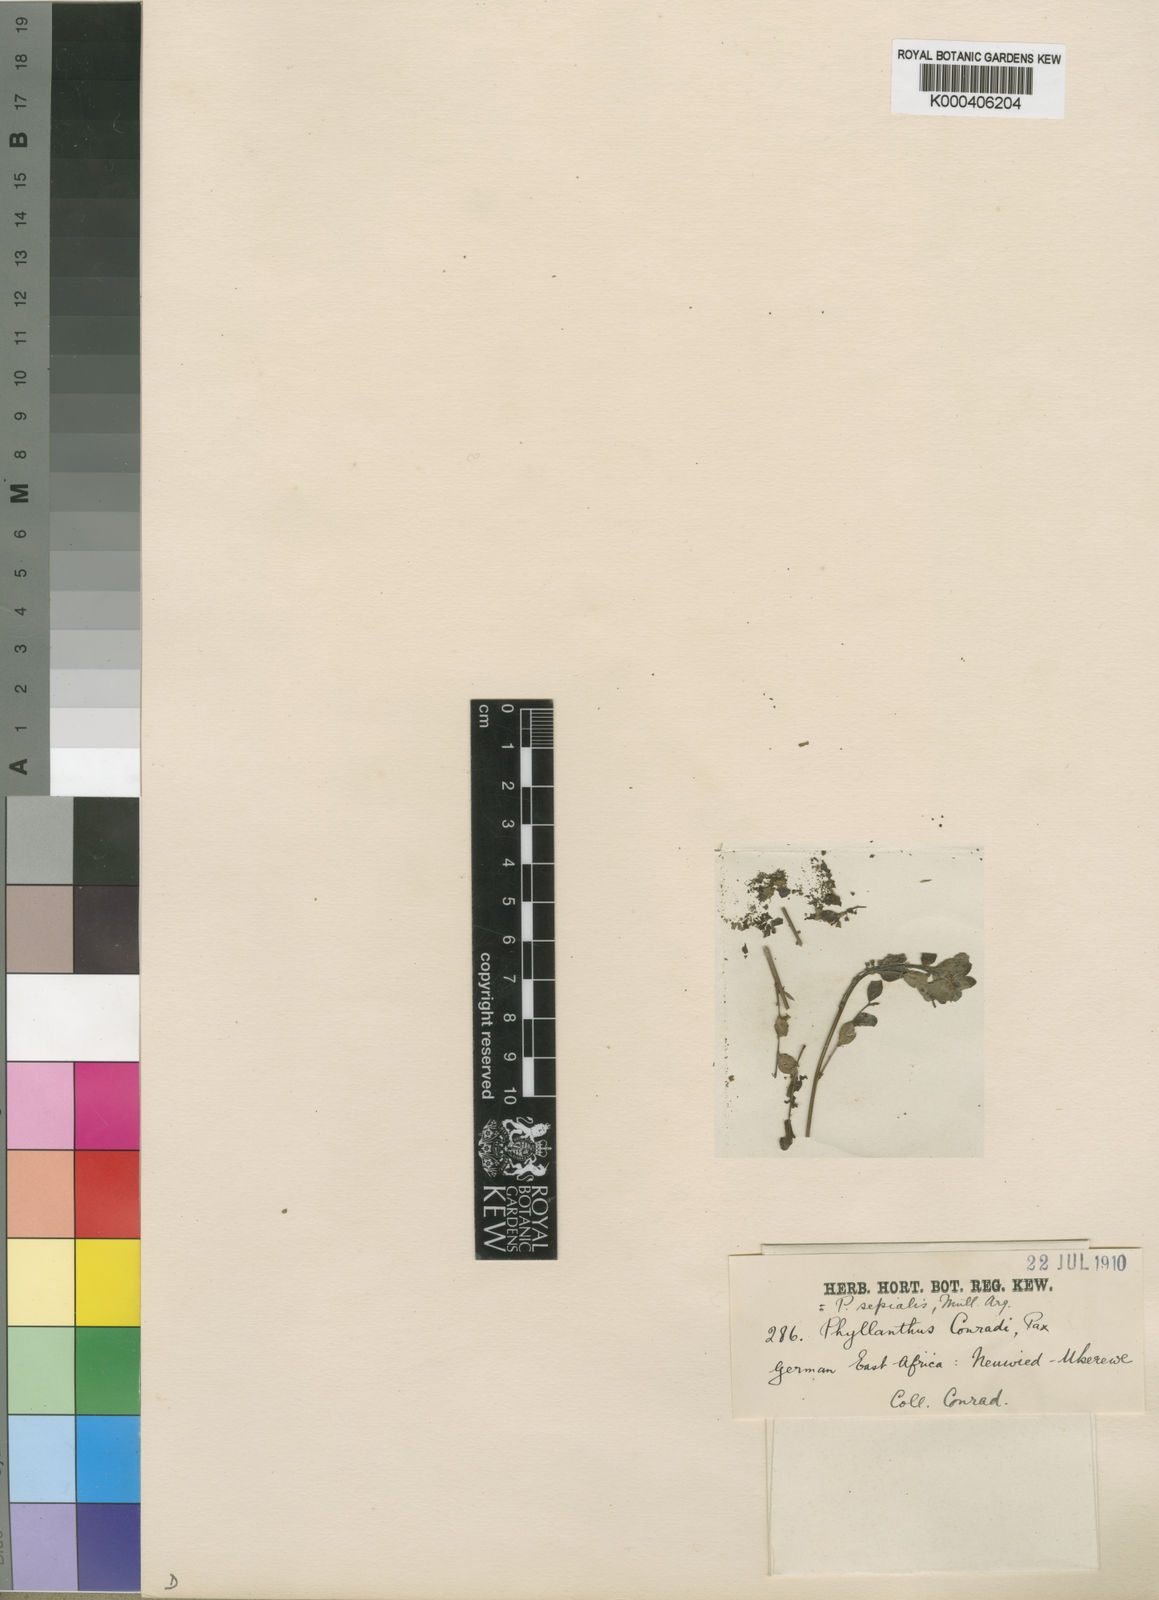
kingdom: Plantae
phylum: Tracheophyta
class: Magnoliopsida
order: Malpighiales
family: Phyllanthaceae
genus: Phyllanthus
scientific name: Phyllanthus
